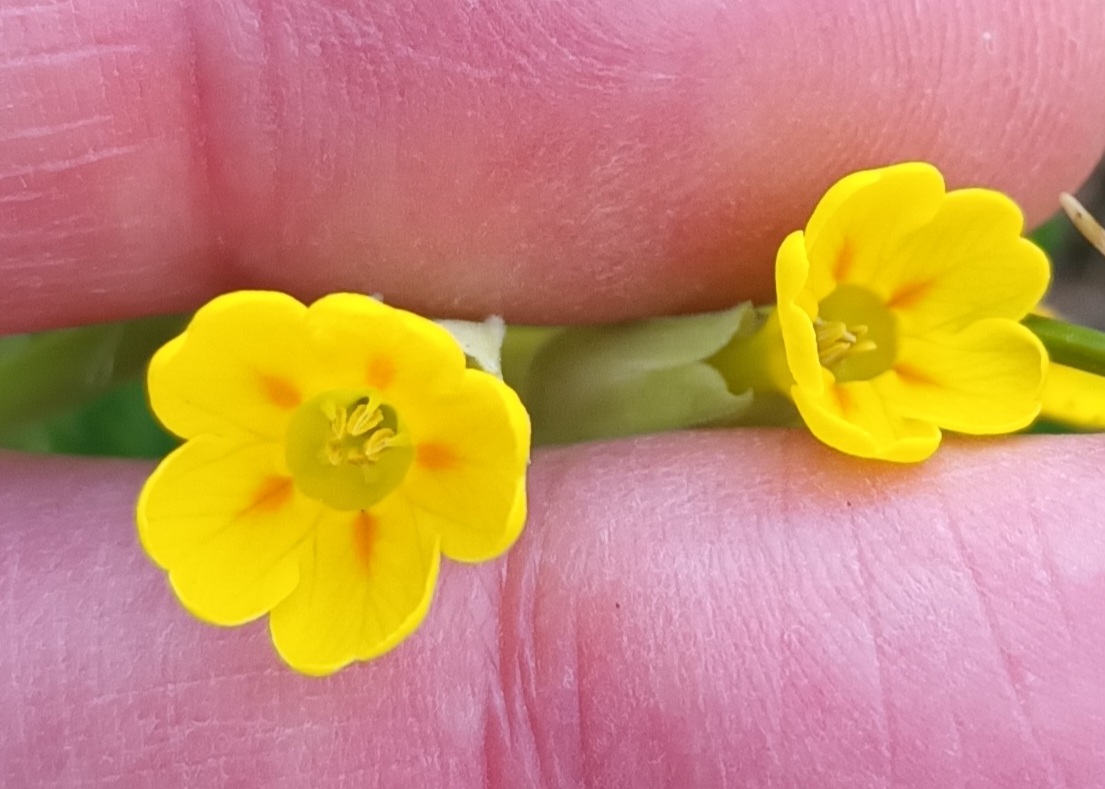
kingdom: Plantae
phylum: Tracheophyta
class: Magnoliopsida
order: Ericales
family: Primulaceae
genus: Primula
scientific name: Primula veris
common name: Hulkravet kodriver
